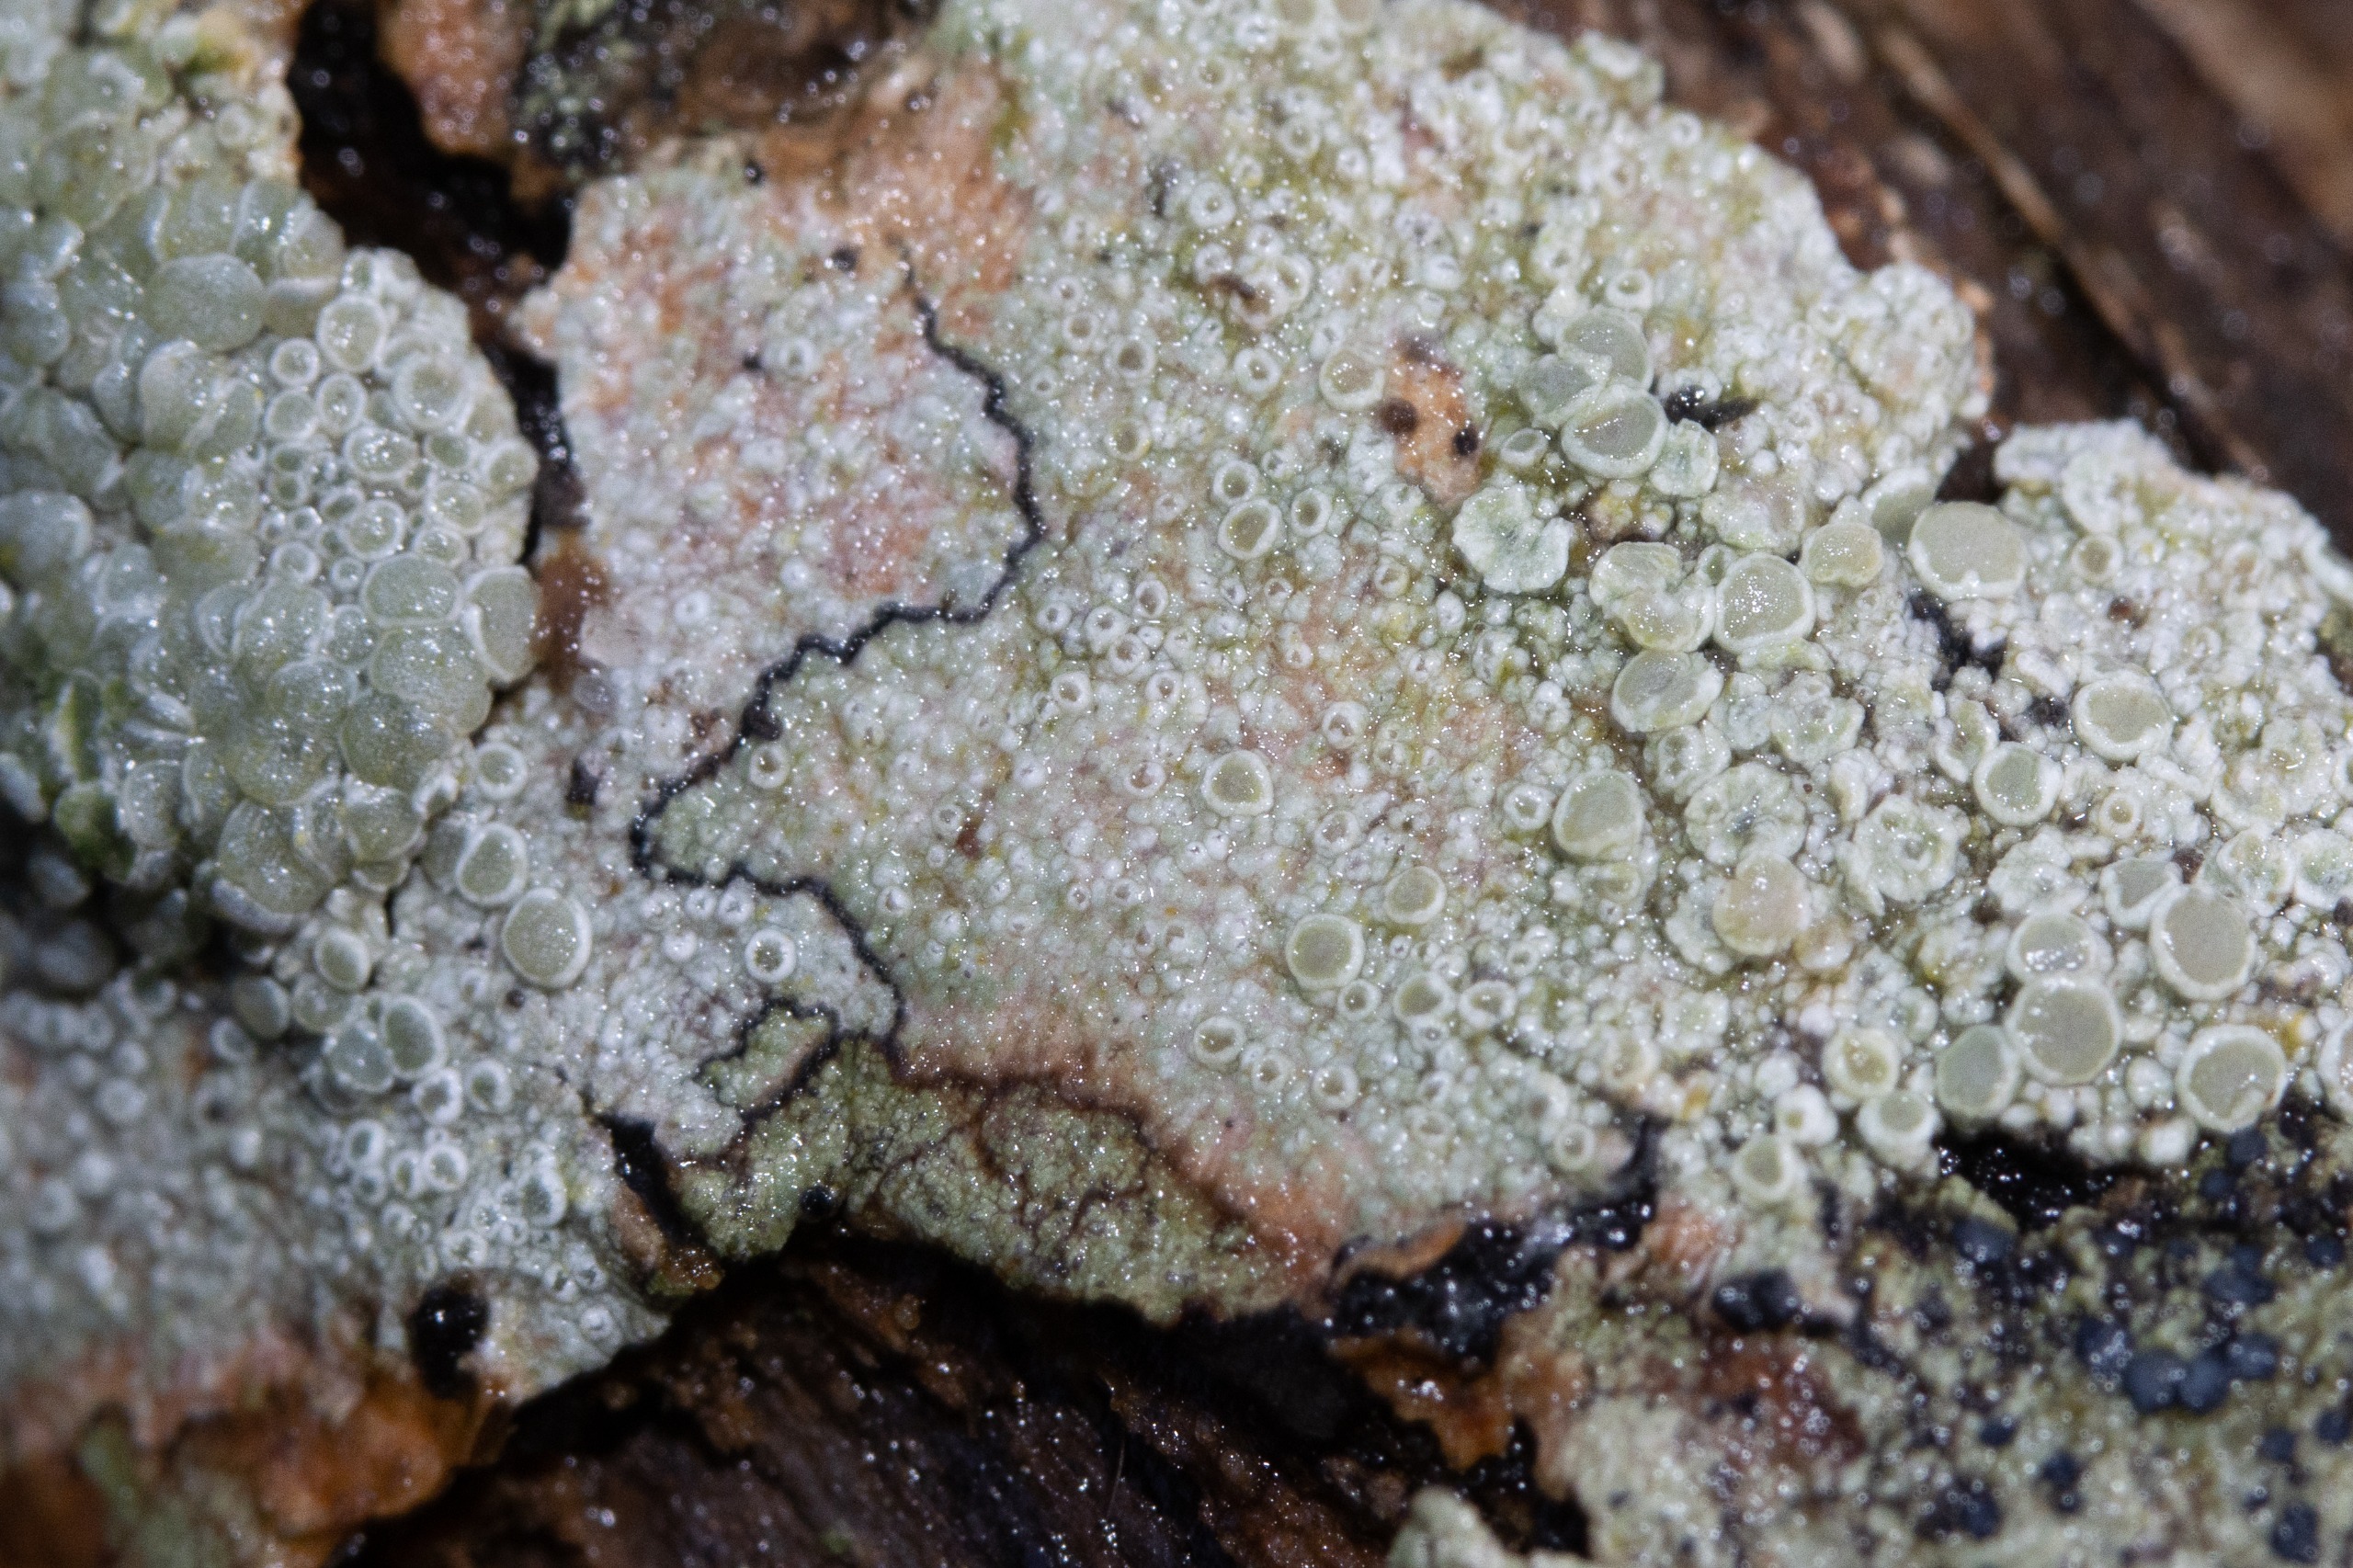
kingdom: Fungi
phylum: Ascomycota
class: Lecanoromycetes
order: Lecanorales
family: Lecanoraceae
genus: Glaucomaria
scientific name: Glaucomaria carpinea
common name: Hviddugget kantskivelav
